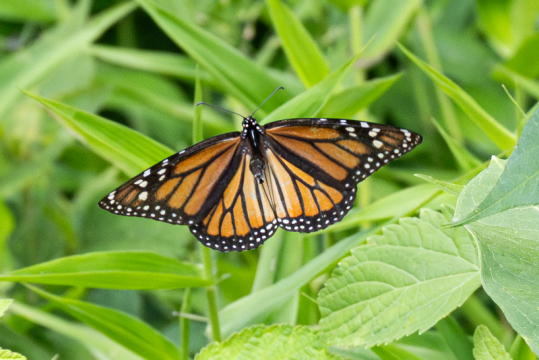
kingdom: Animalia
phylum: Arthropoda
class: Insecta
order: Lepidoptera
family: Nymphalidae
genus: Danaus
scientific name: Danaus plexippus
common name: Monarch
